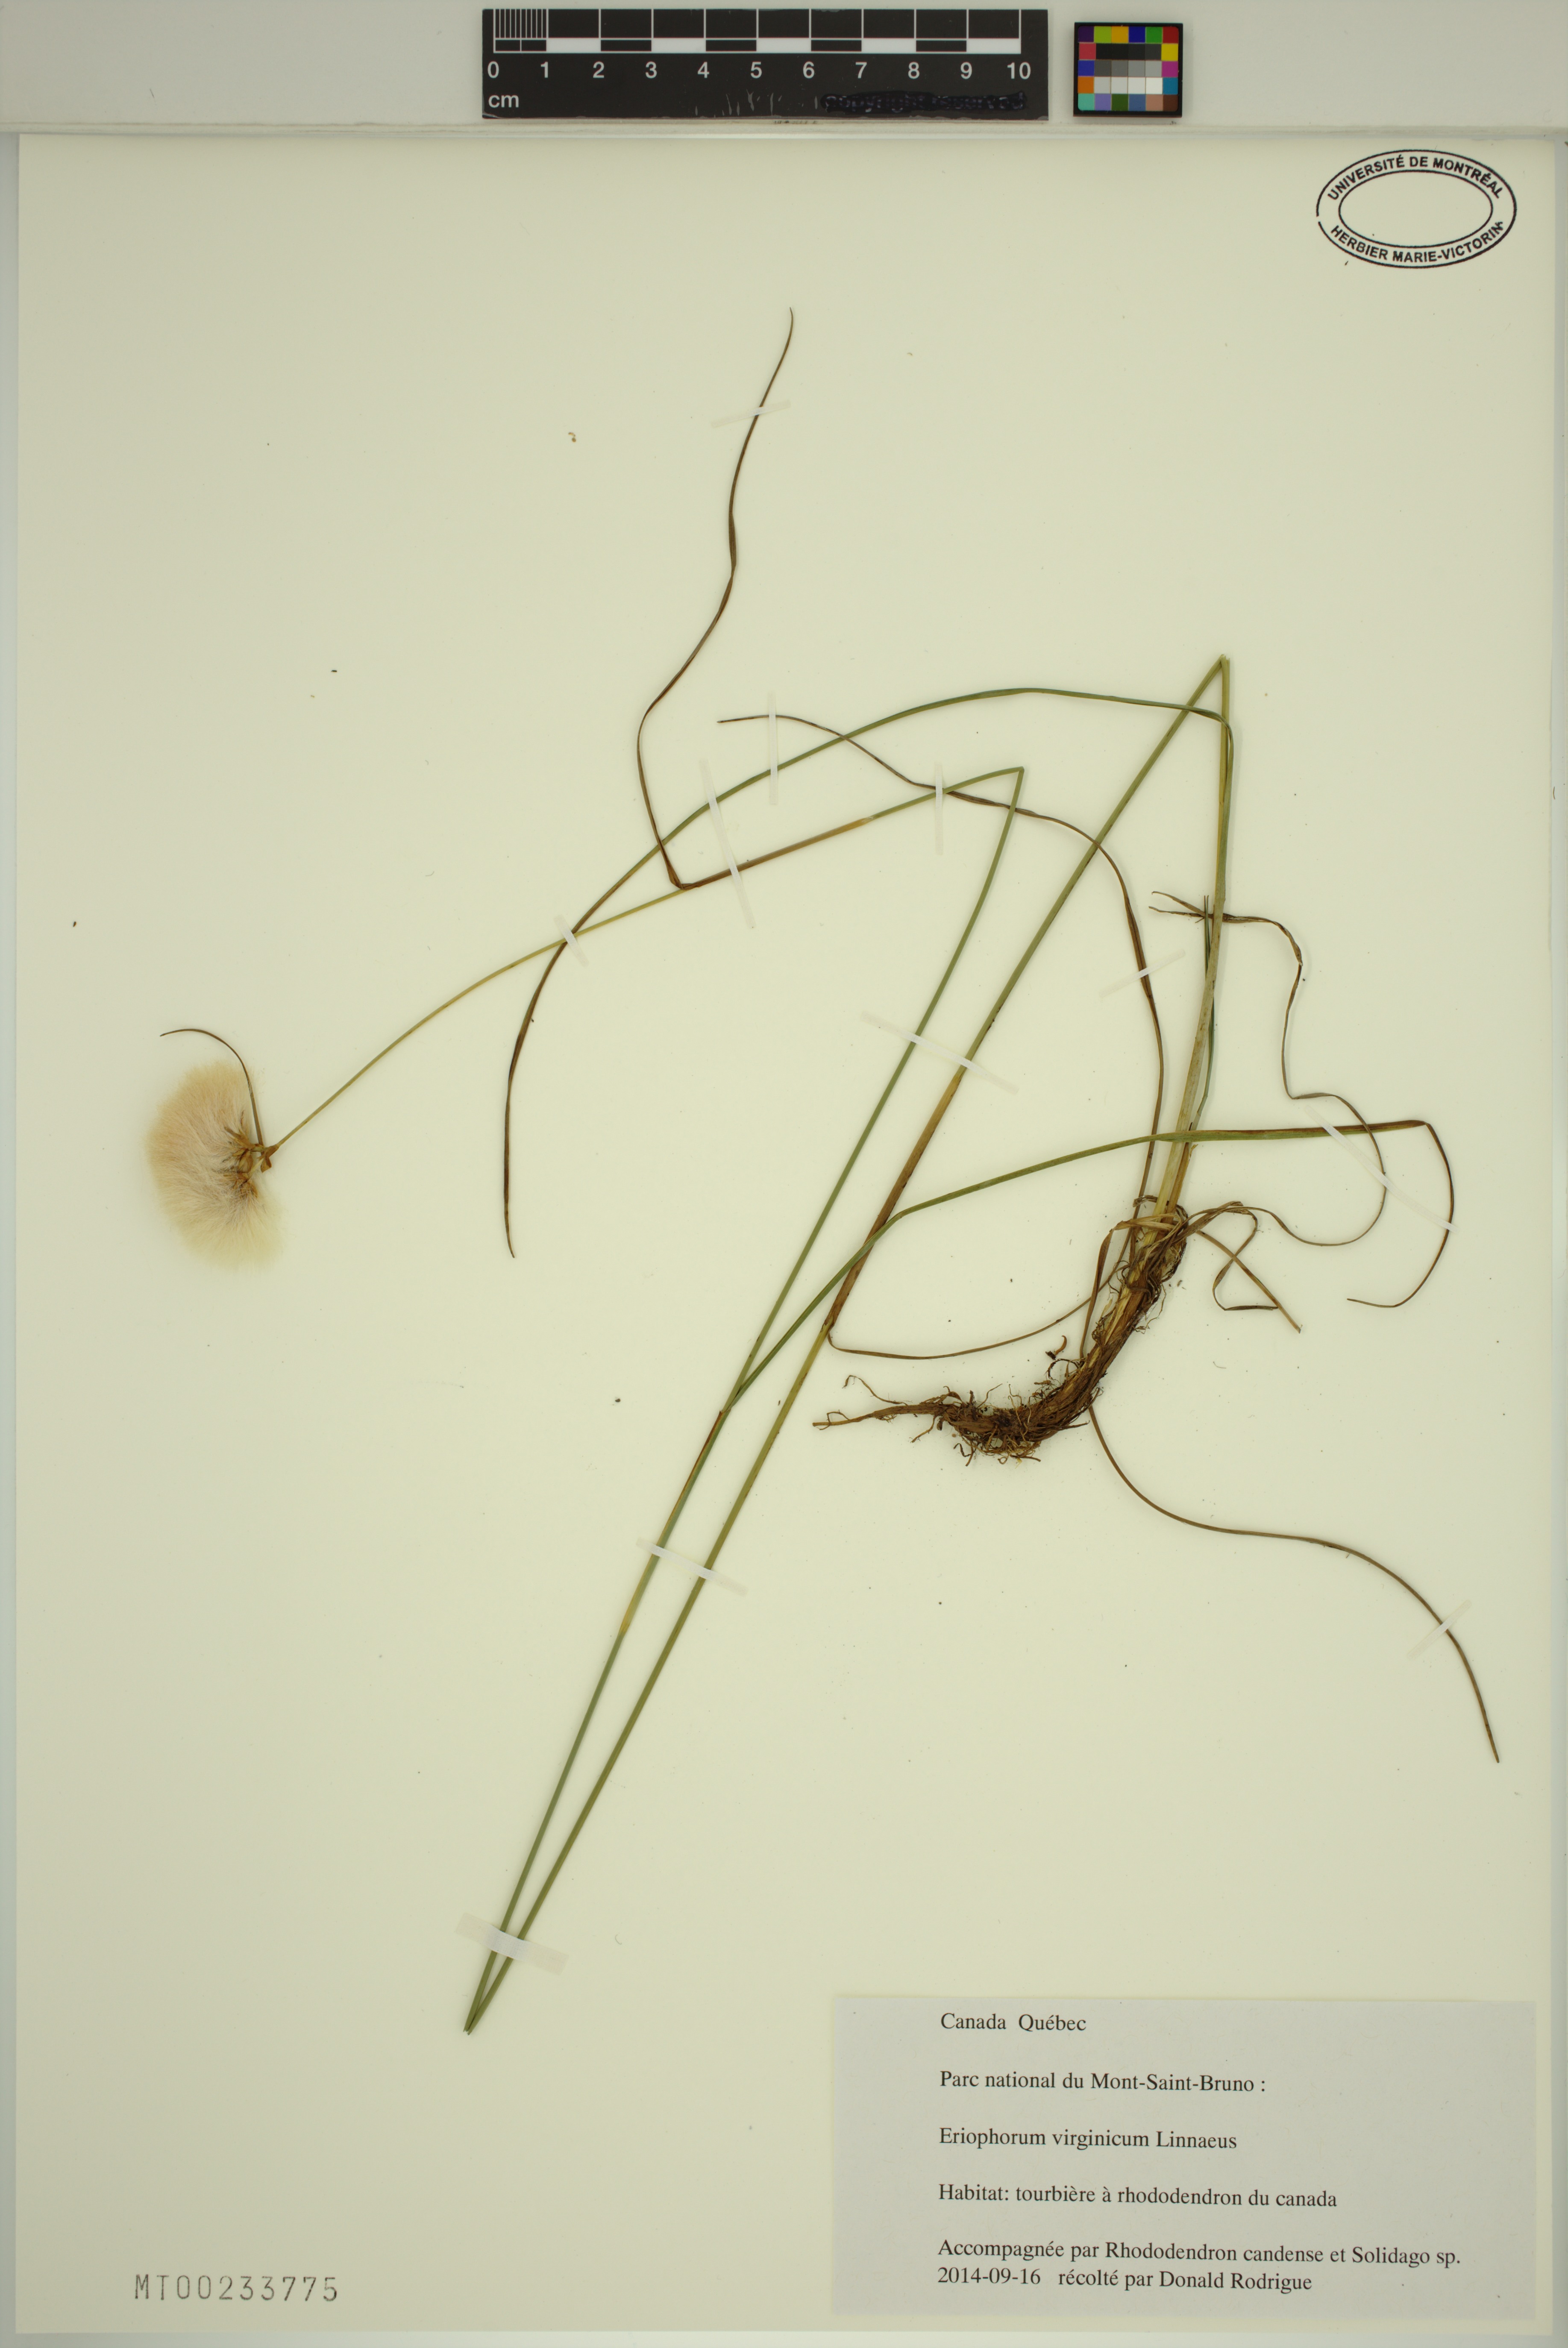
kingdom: Plantae
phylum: Tracheophyta
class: Liliopsida
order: Poales
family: Cyperaceae
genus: Eriophorum
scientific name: Eriophorum virginicum
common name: Tawny cottongrass
